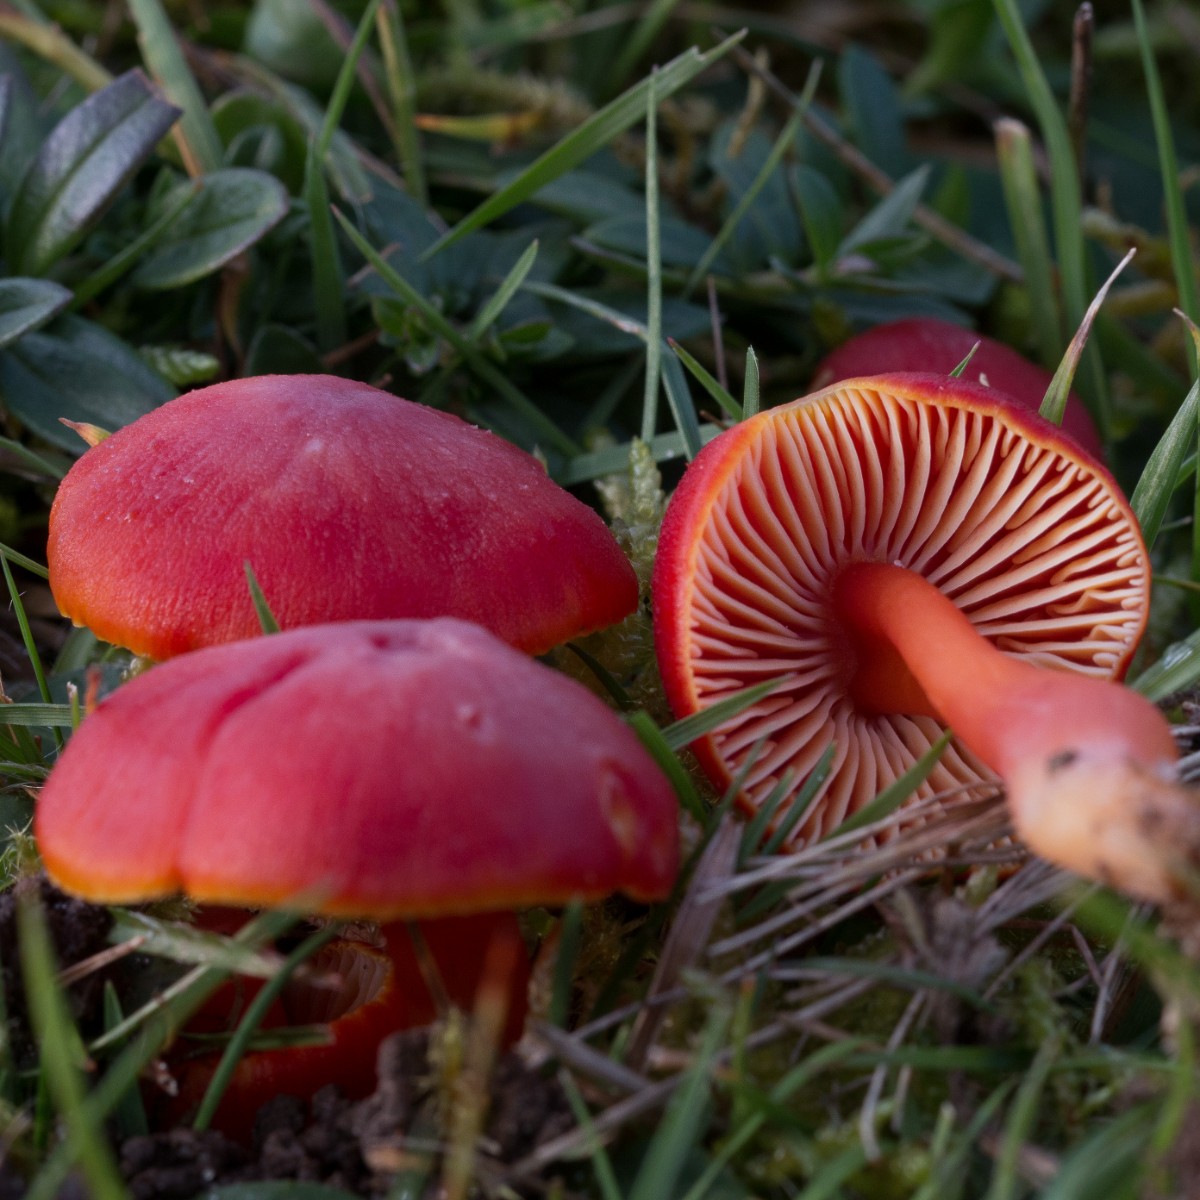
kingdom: Fungi
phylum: Basidiomycota
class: Agaricomycetes
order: Agaricales
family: Hygrophoraceae
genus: Hygrocybe
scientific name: Hygrocybe coccinea
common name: cinnober-vokshat
